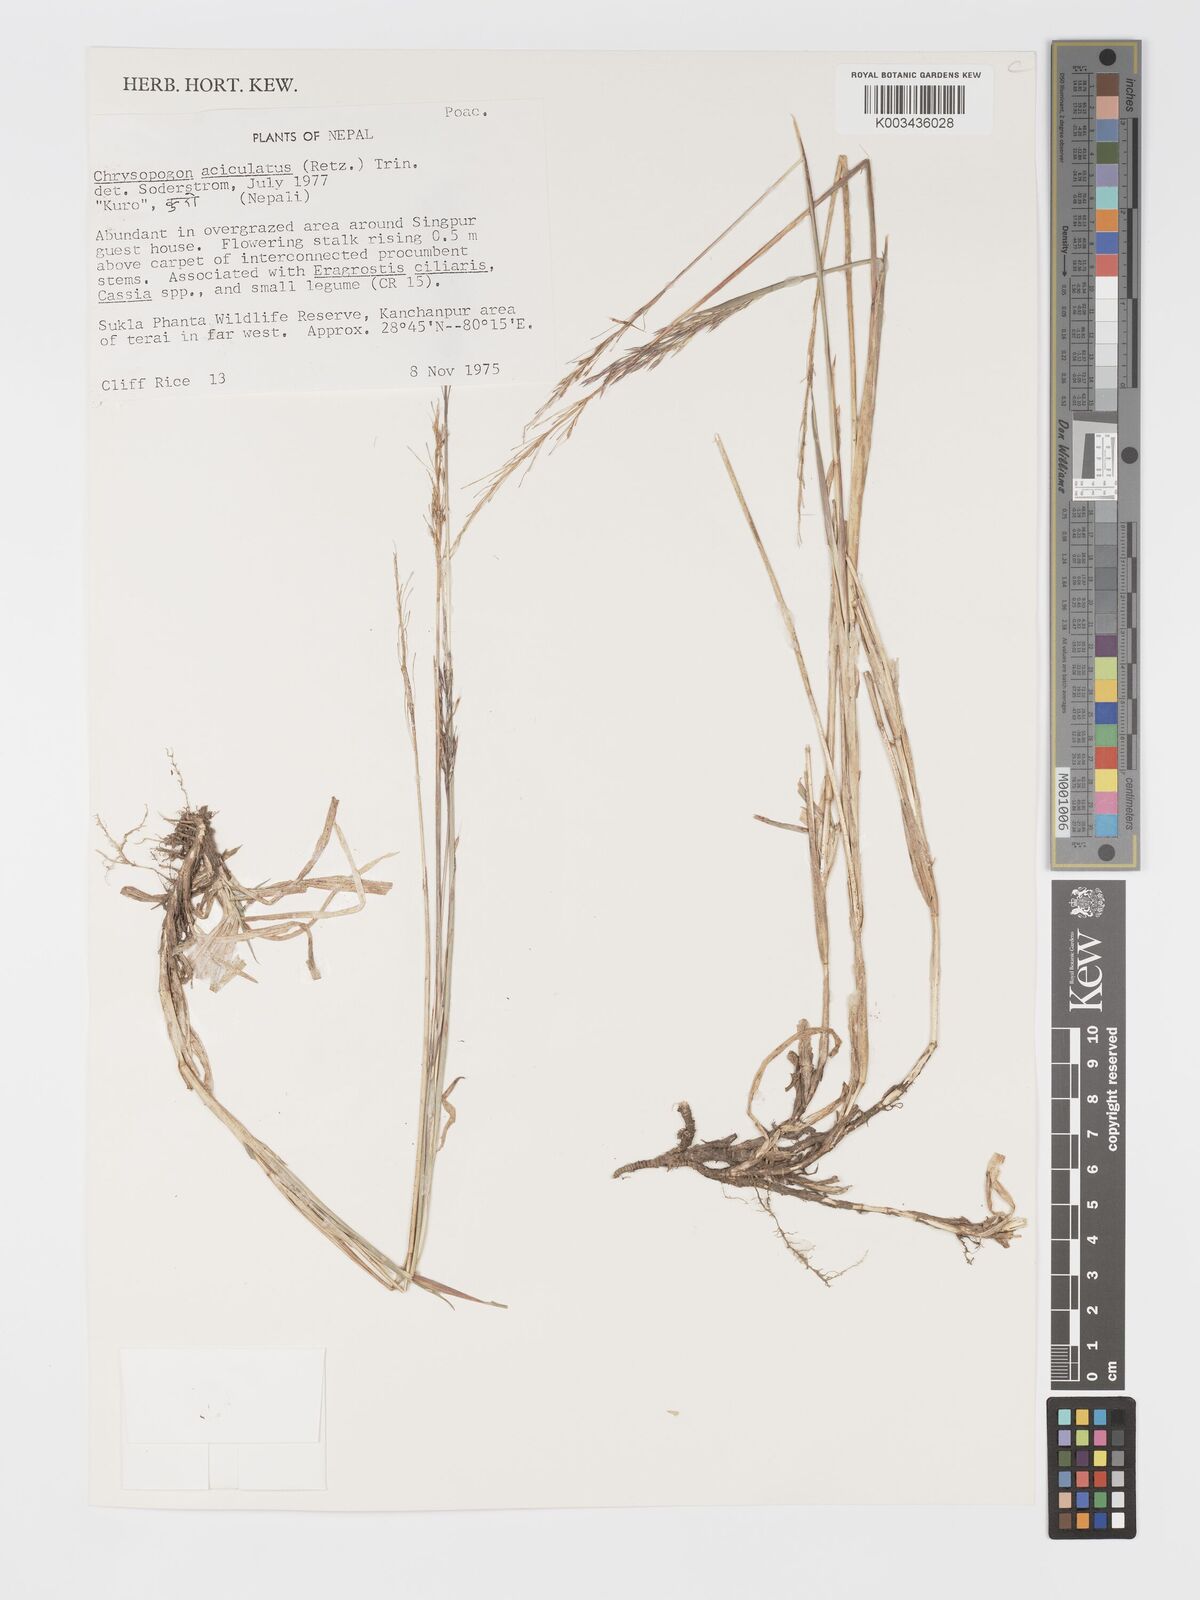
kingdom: Plantae
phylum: Tracheophyta
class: Liliopsida
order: Poales
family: Poaceae
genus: Chrysopogon
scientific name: Chrysopogon aciculatus
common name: Pilipiliula
